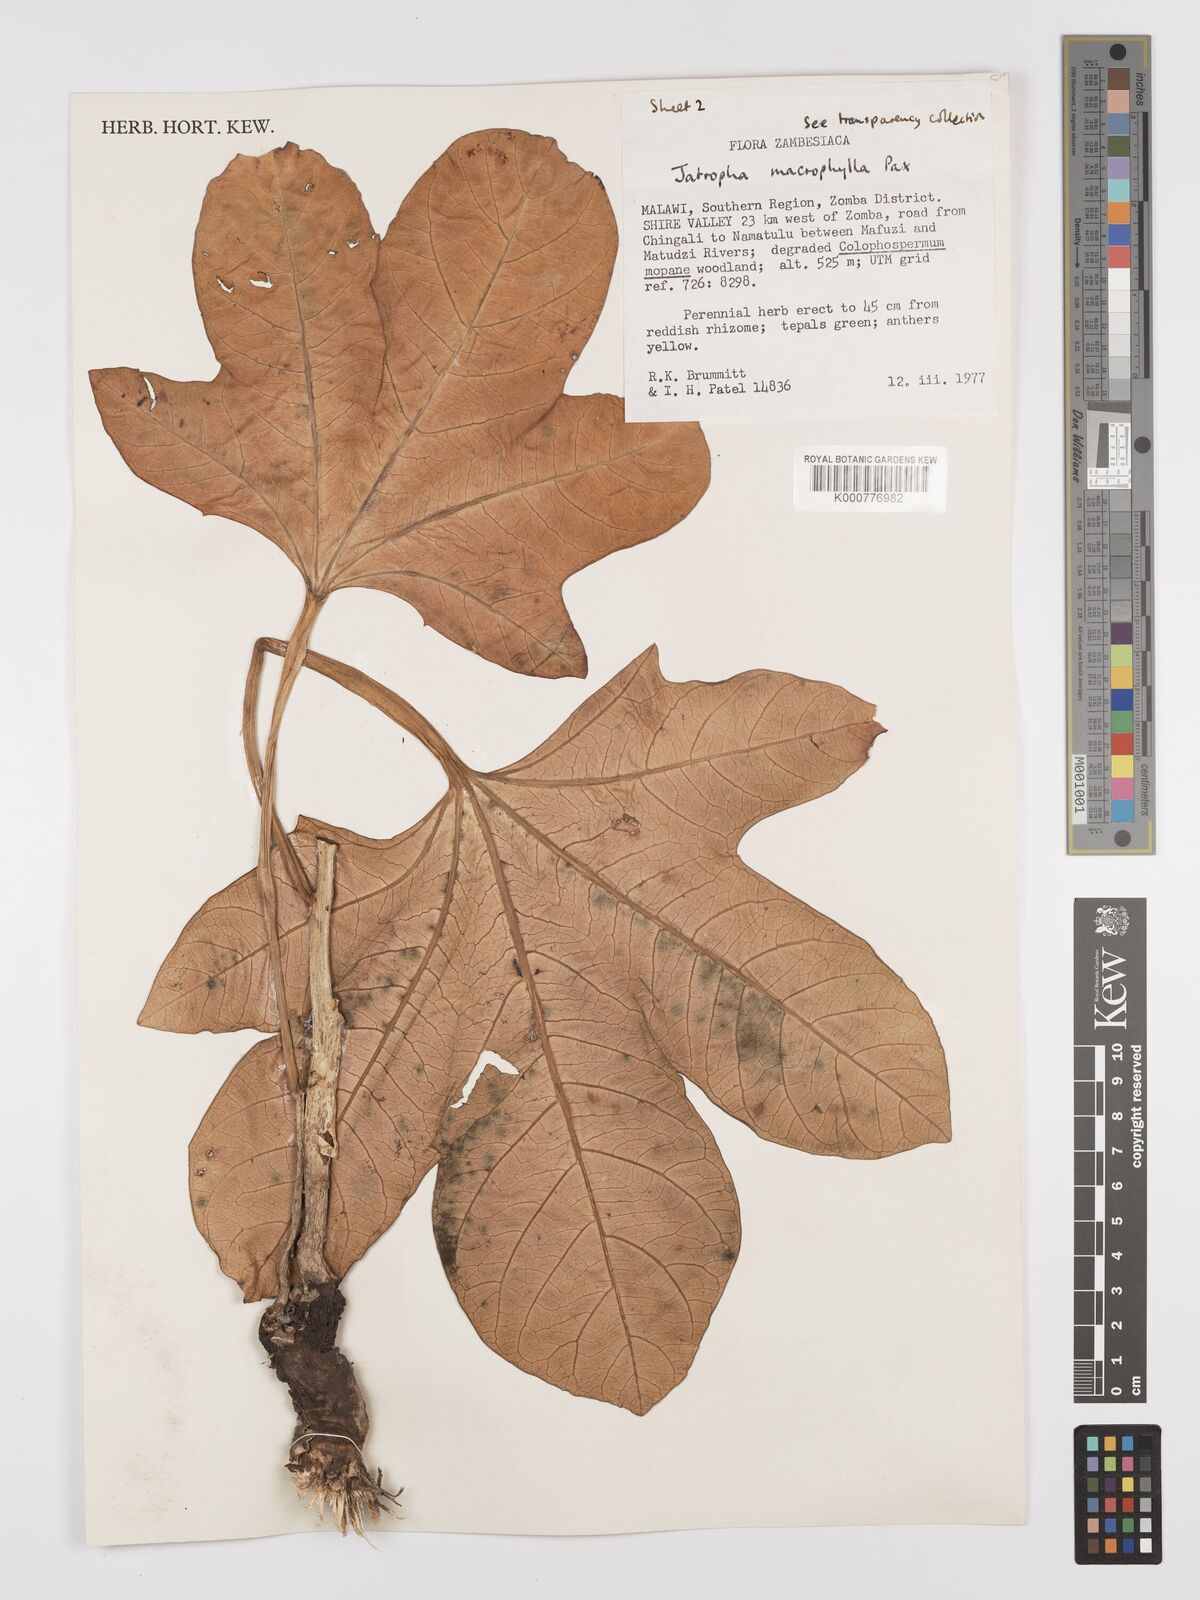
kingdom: Plantae
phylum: Tracheophyta
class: Magnoliopsida
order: Malpighiales
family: Euphorbiaceae
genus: Jatropha
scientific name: Jatropha macrophylla
